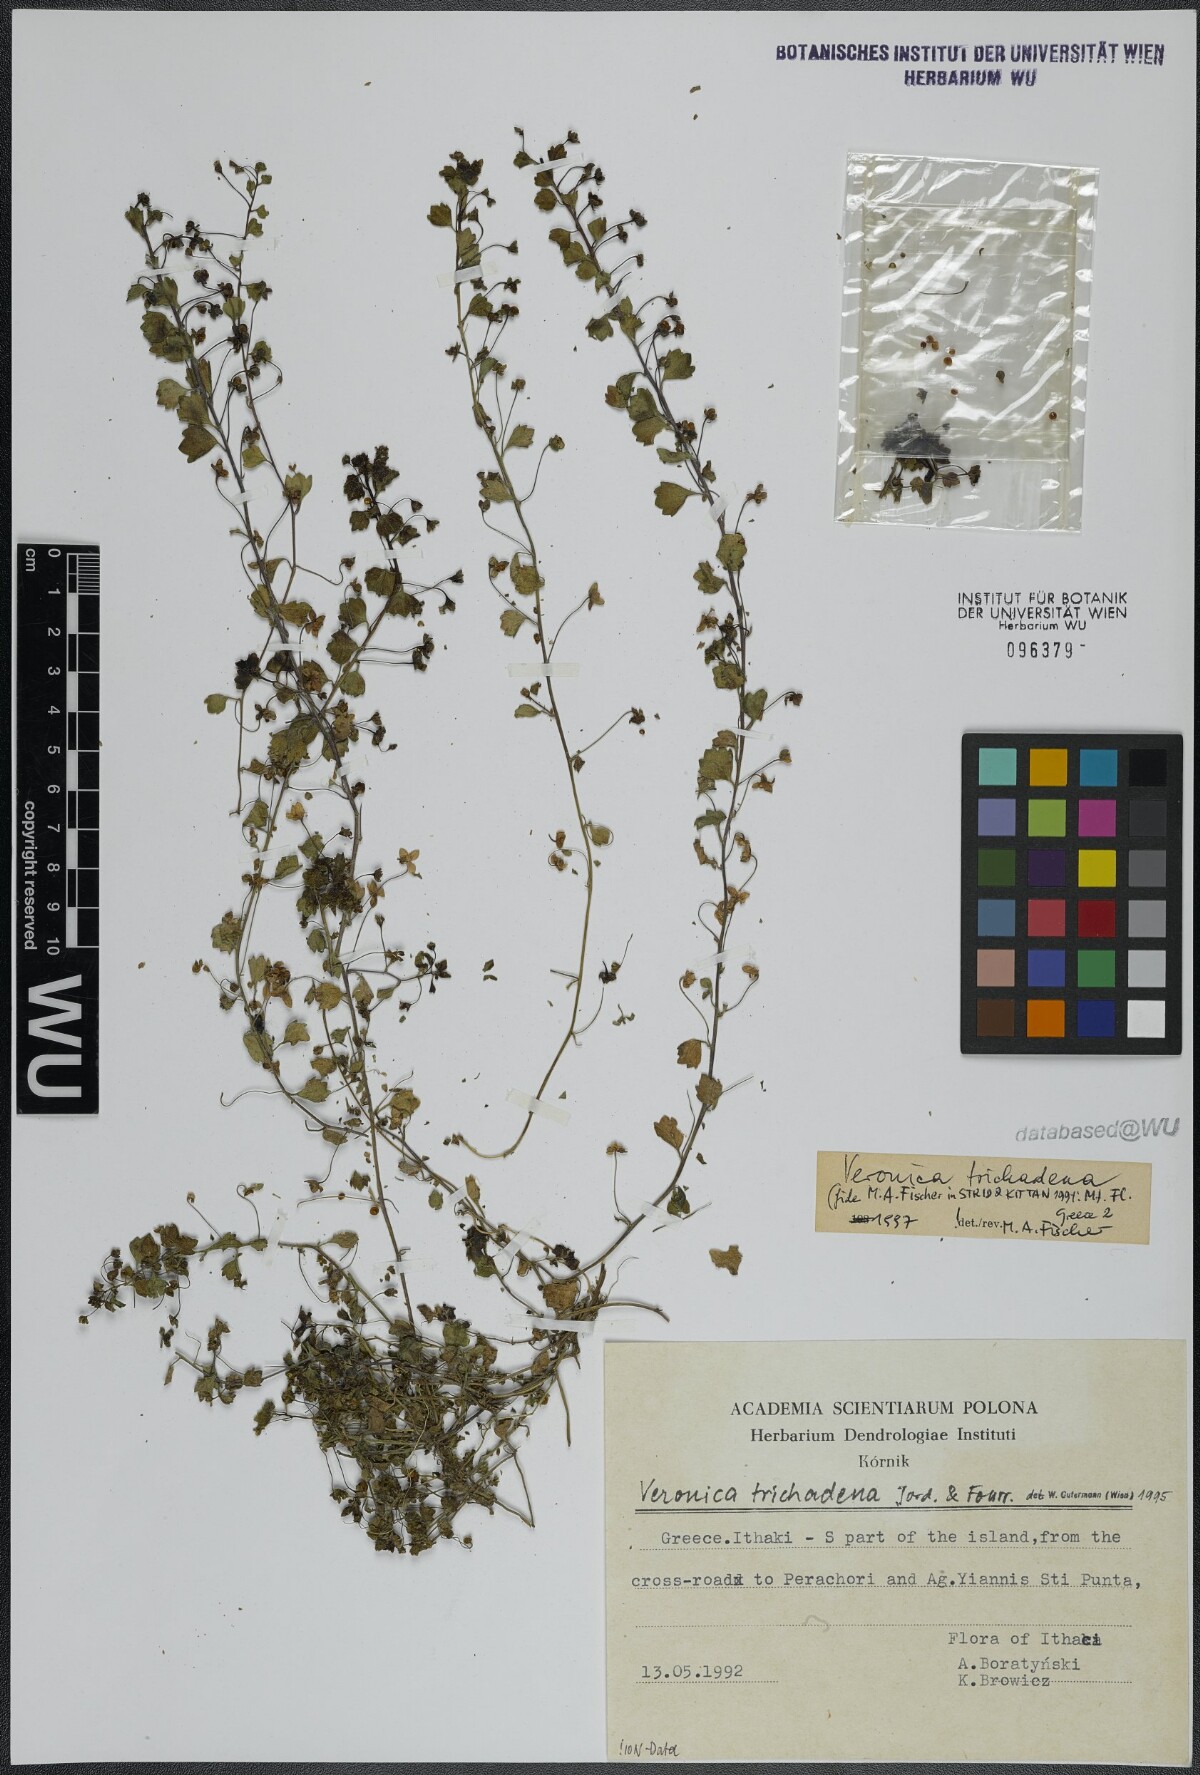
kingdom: Plantae
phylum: Tracheophyta
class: Magnoliopsida
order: Lamiales
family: Plantaginaceae
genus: Veronica
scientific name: Veronica trichadena
